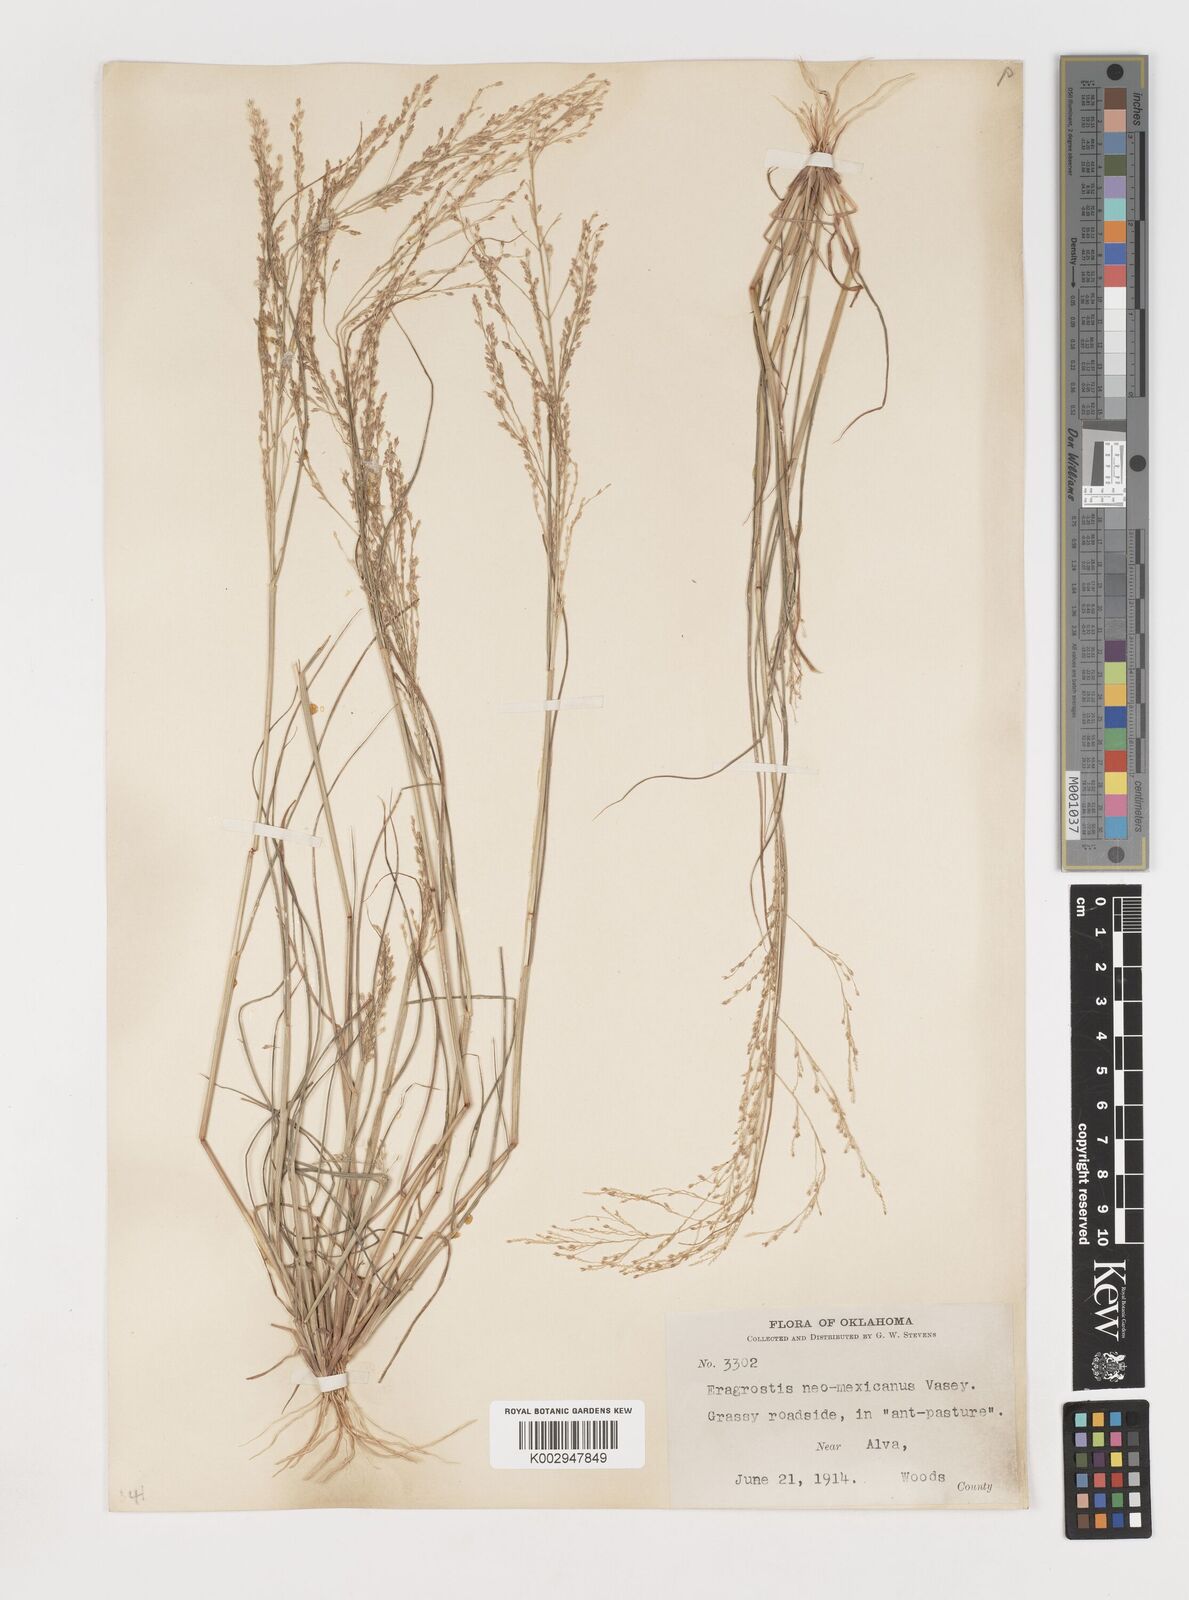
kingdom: Plantae
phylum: Tracheophyta
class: Liliopsida
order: Poales
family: Poaceae
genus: Eragrostis
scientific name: Eragrostis pectinacea
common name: Tufted lovegrass
